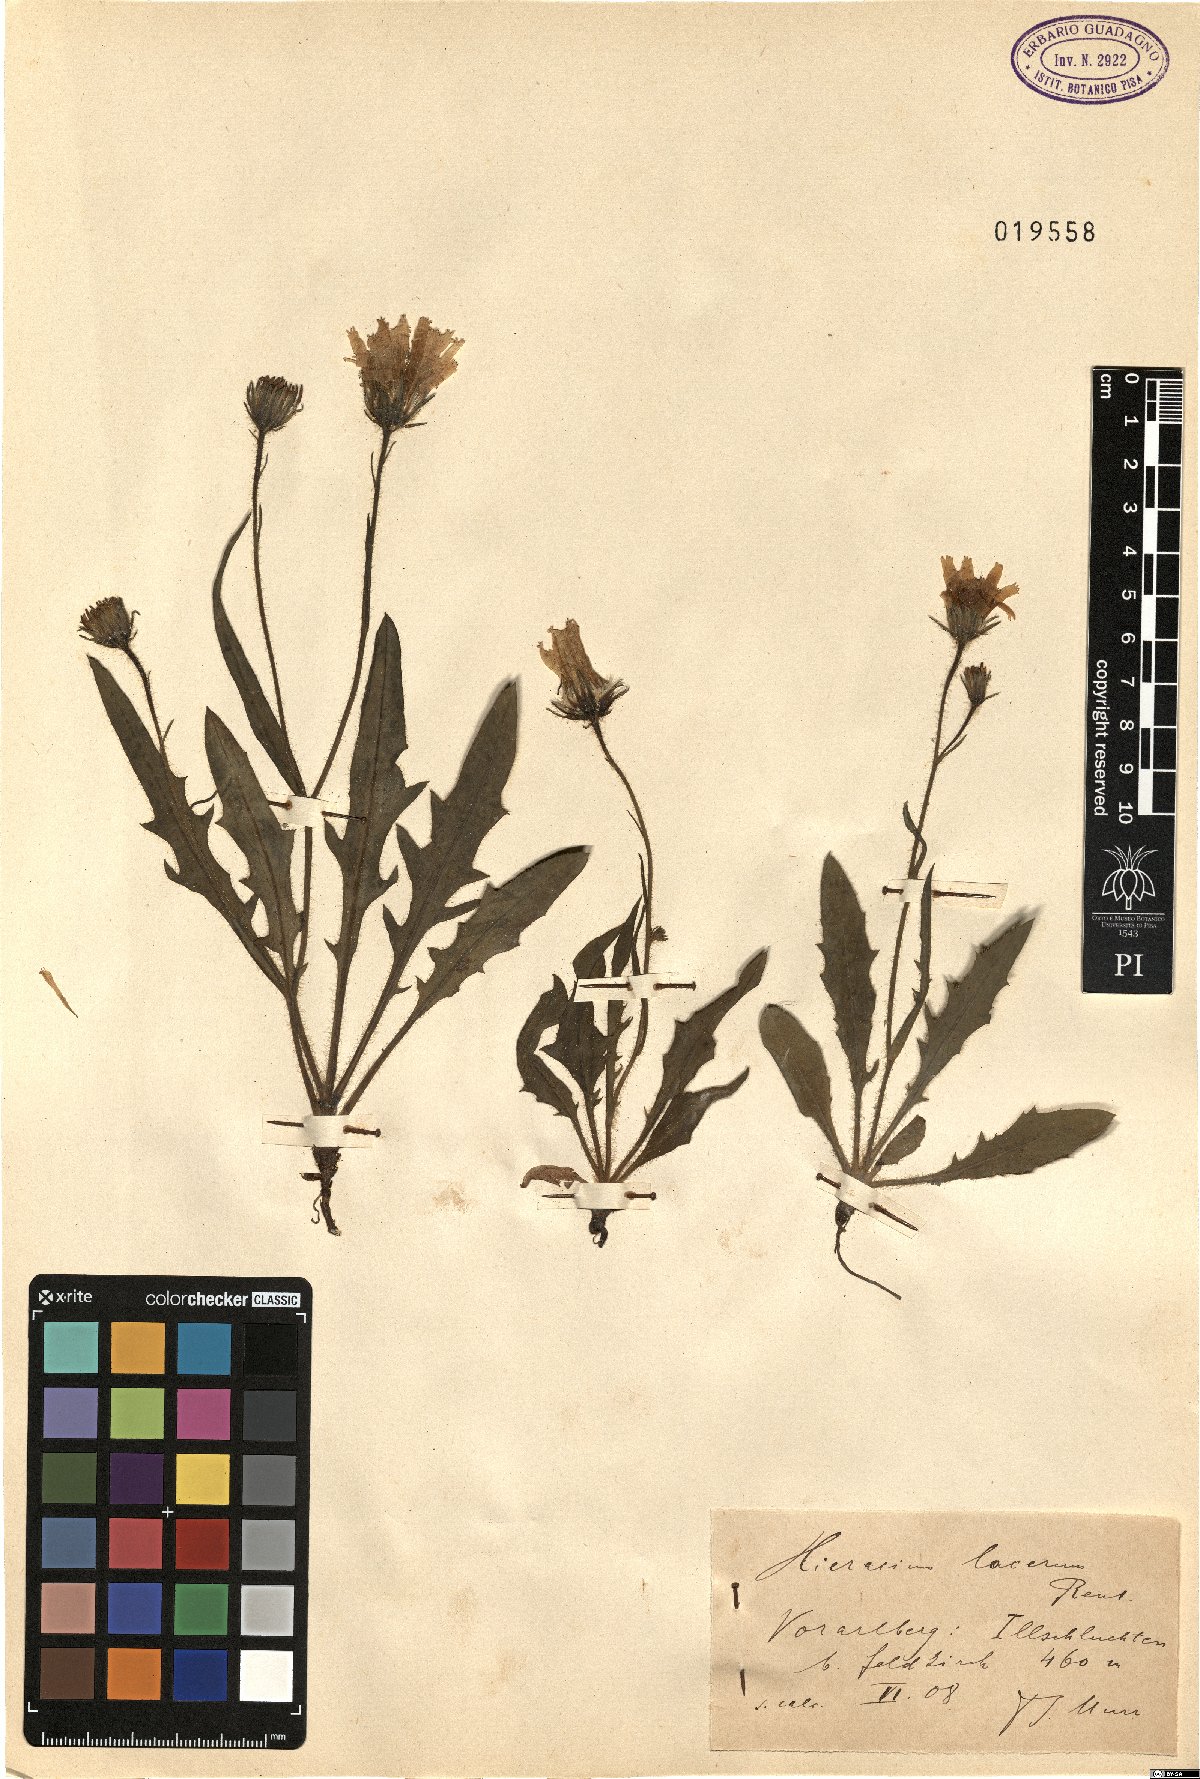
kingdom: Plantae
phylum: Tracheophyta
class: Magnoliopsida
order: Asterales
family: Asteraceae
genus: Hieracium
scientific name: Hieracium humile
